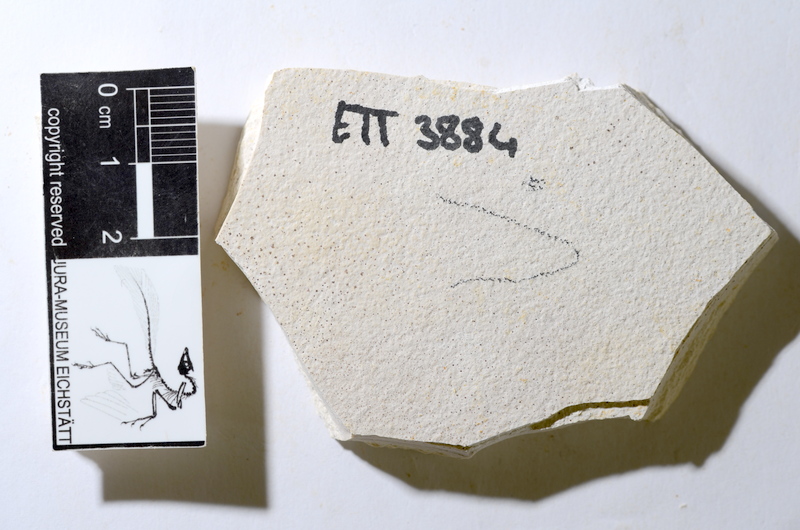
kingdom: Animalia
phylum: Chordata
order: Salmoniformes
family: Orthogonikleithridae
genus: Orthogonikleithrus
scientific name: Orthogonikleithrus hoelli
